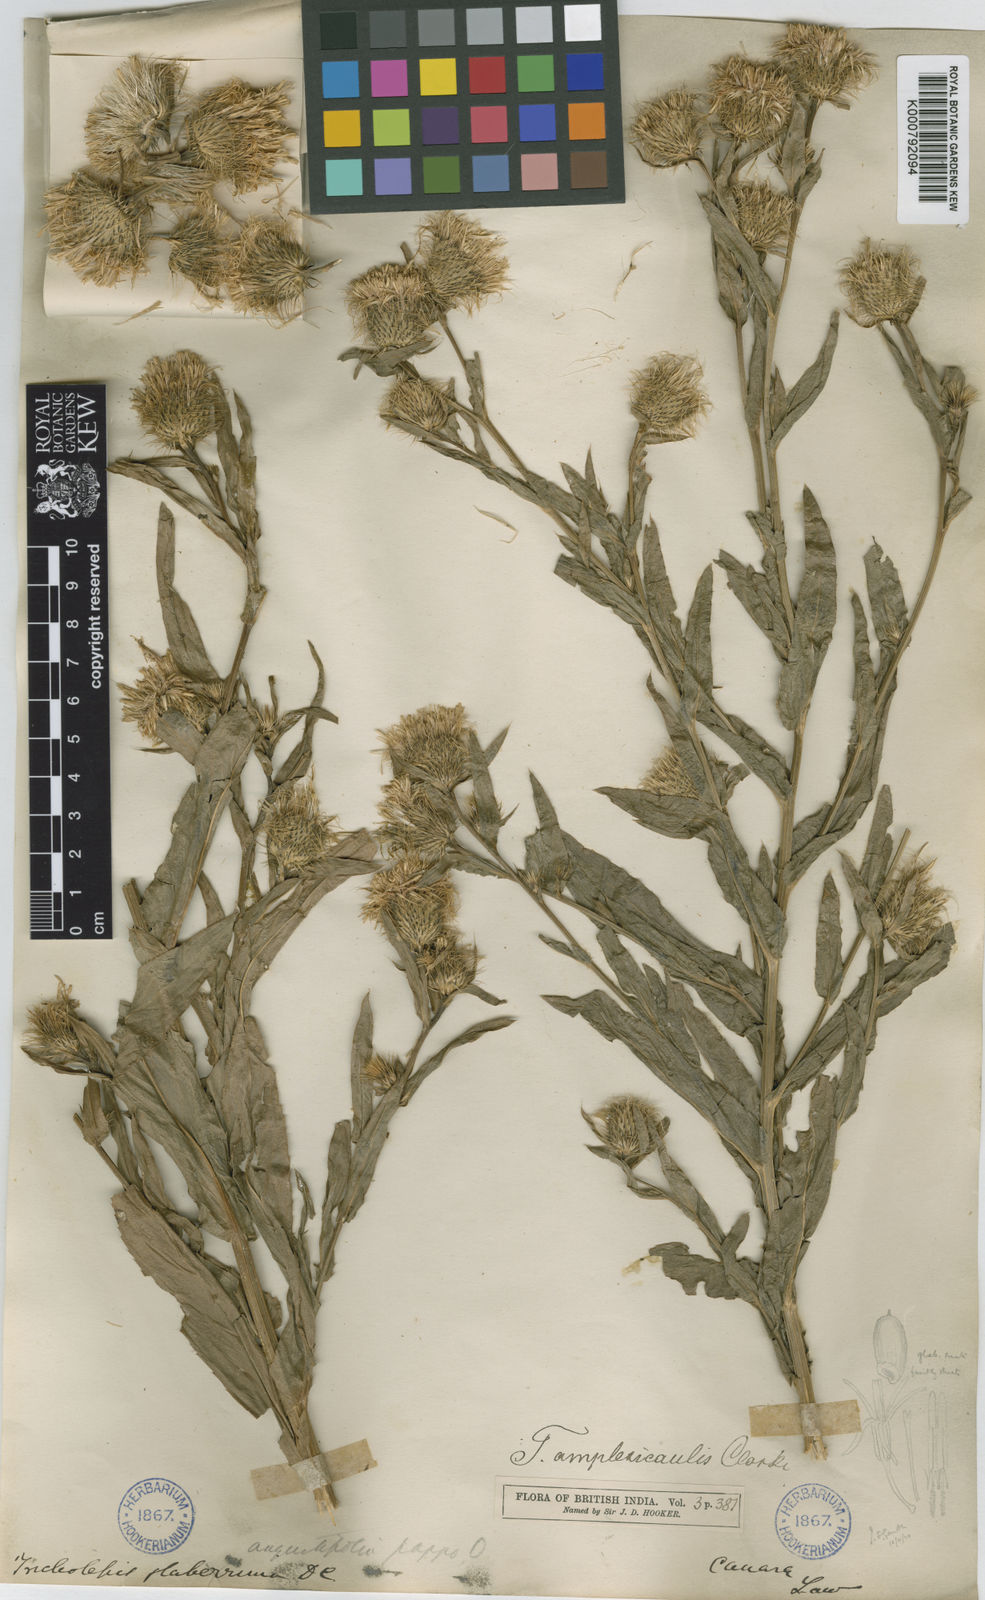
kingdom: Plantae
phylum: Tracheophyta
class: Magnoliopsida
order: Asterales
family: Asteraceae
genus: Tricholepis
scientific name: Tricholepis amplexicaulis
